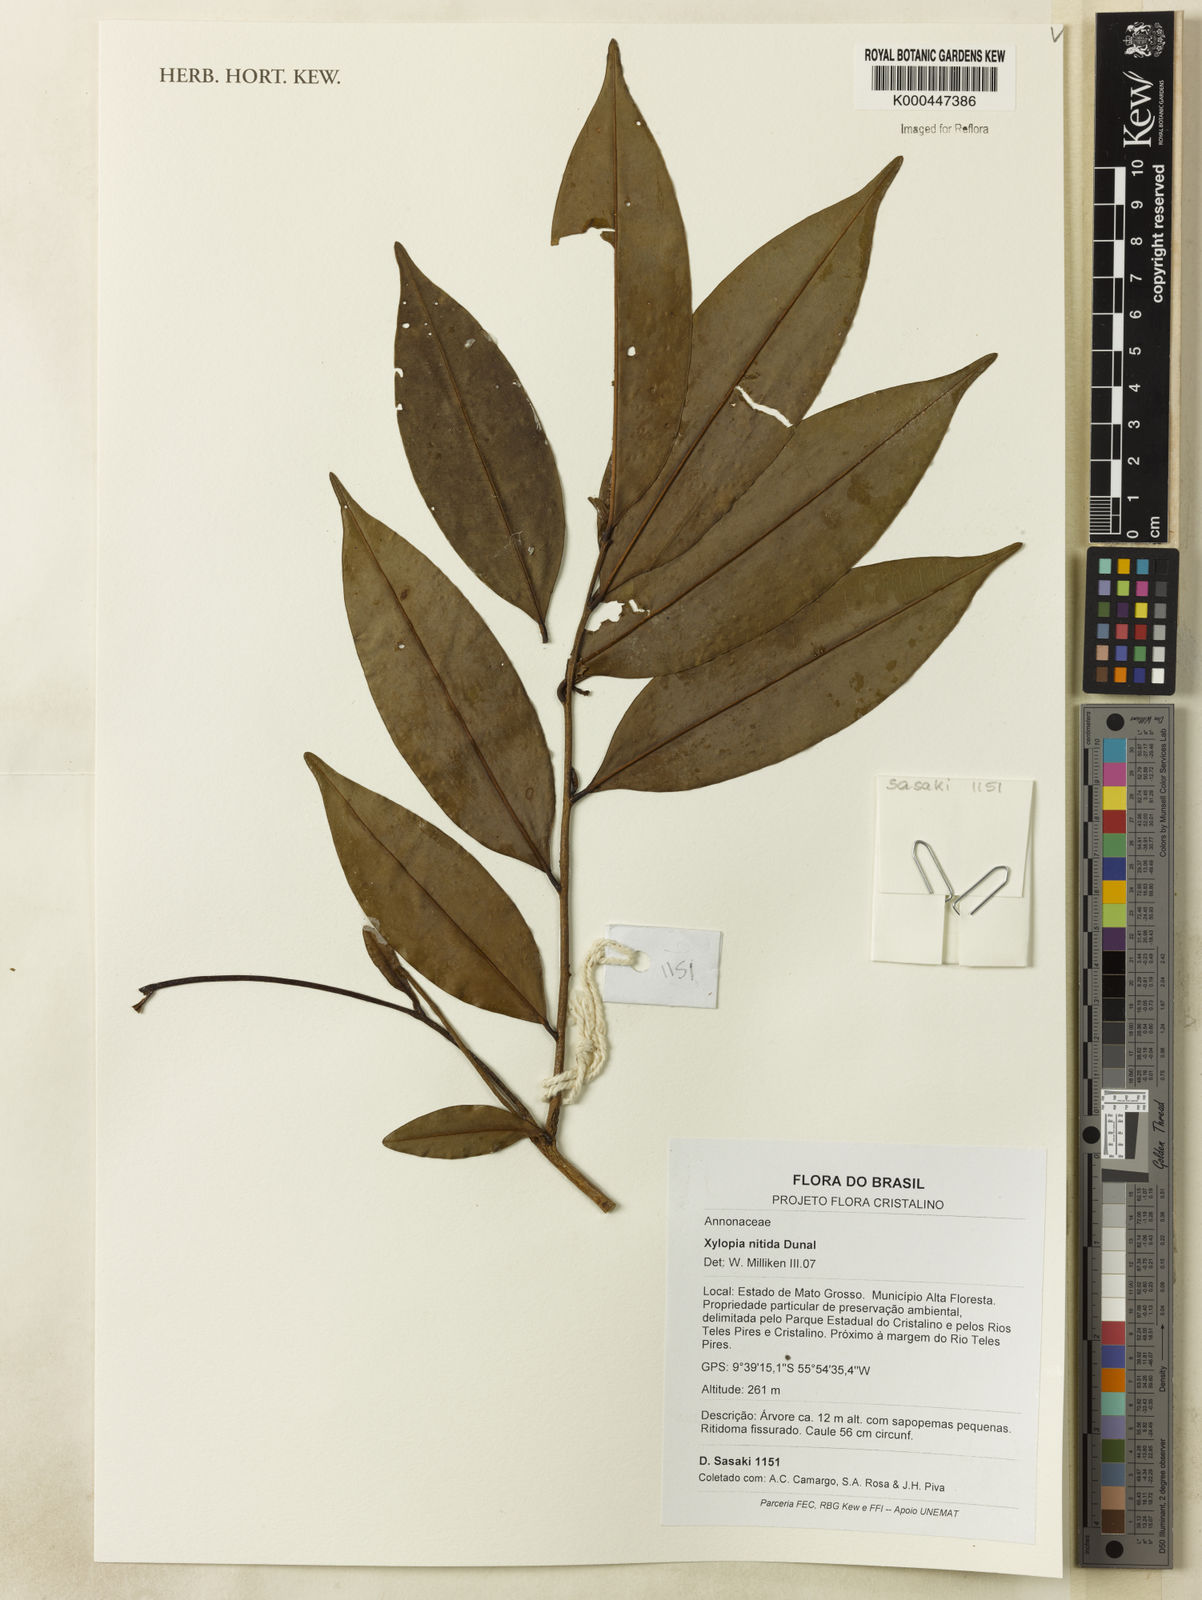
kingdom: Plantae
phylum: Tracheophyta
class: Magnoliopsida
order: Magnoliales
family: Annonaceae
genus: Xylopia
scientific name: Xylopia nitida
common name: White kuyama
